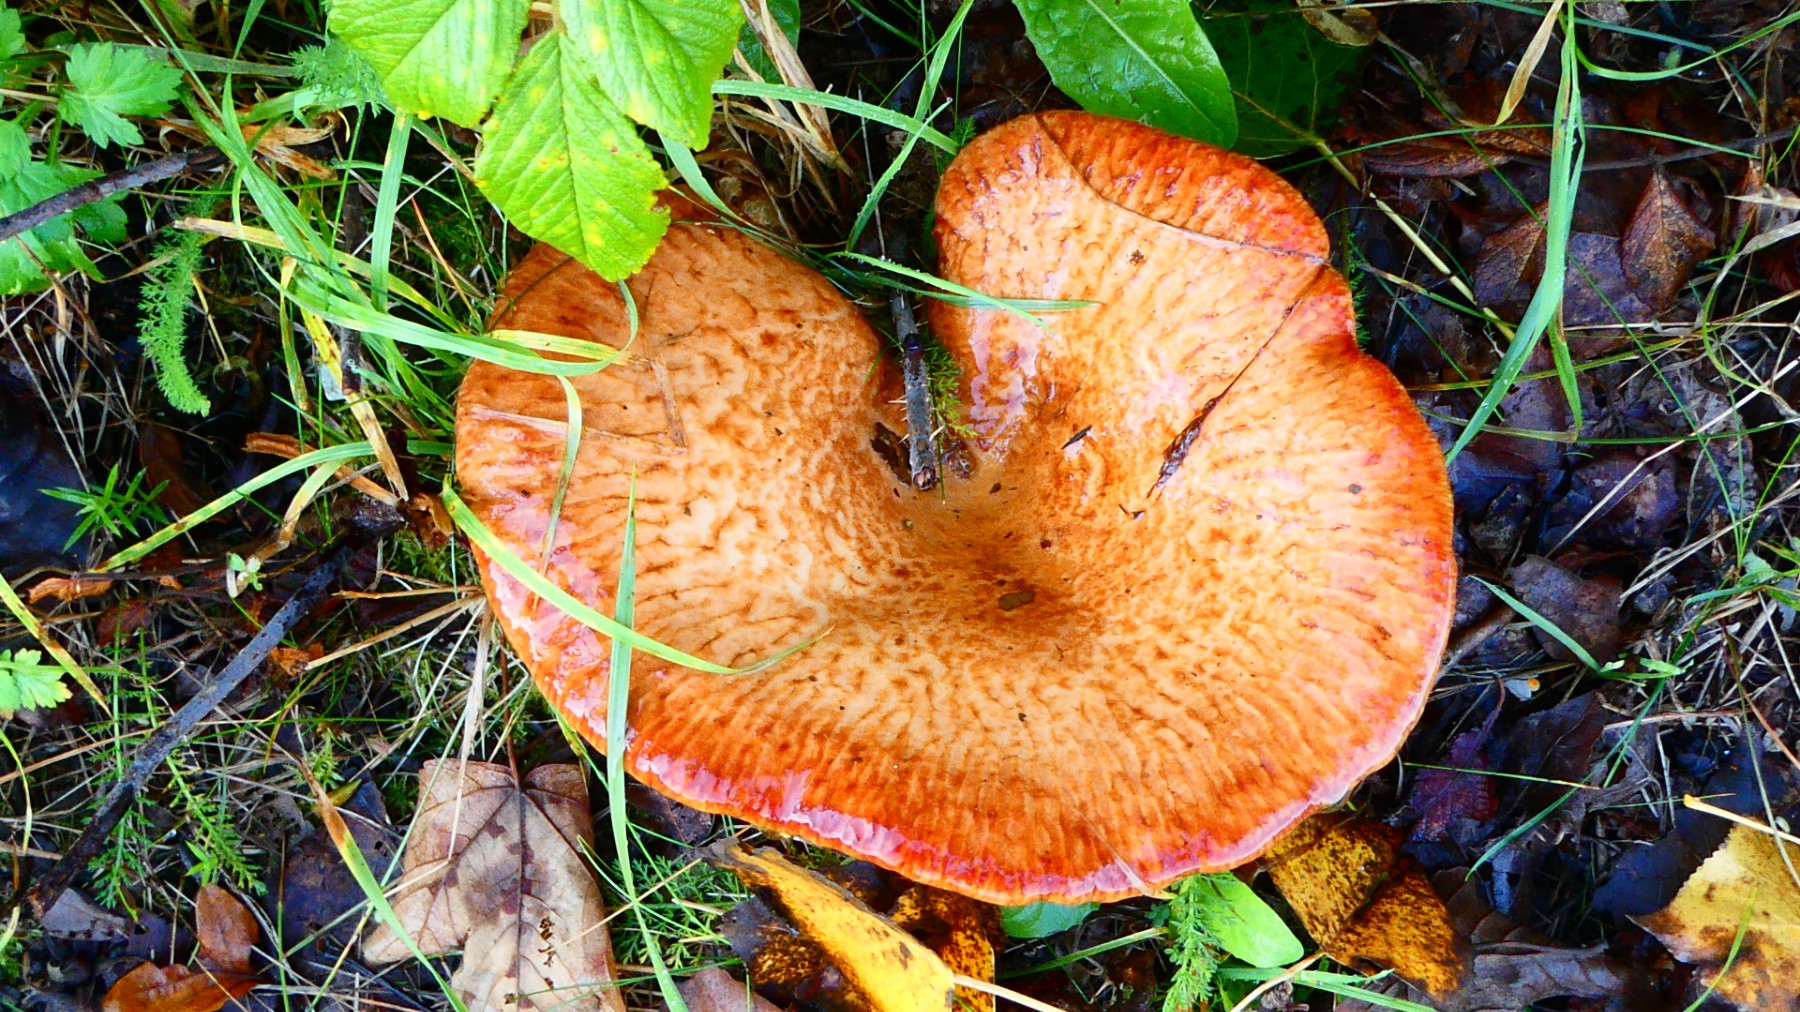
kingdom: Fungi
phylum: Basidiomycota
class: Agaricomycetes
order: Boletales
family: Paxillaceae
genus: Paxillus
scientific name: Paxillus
